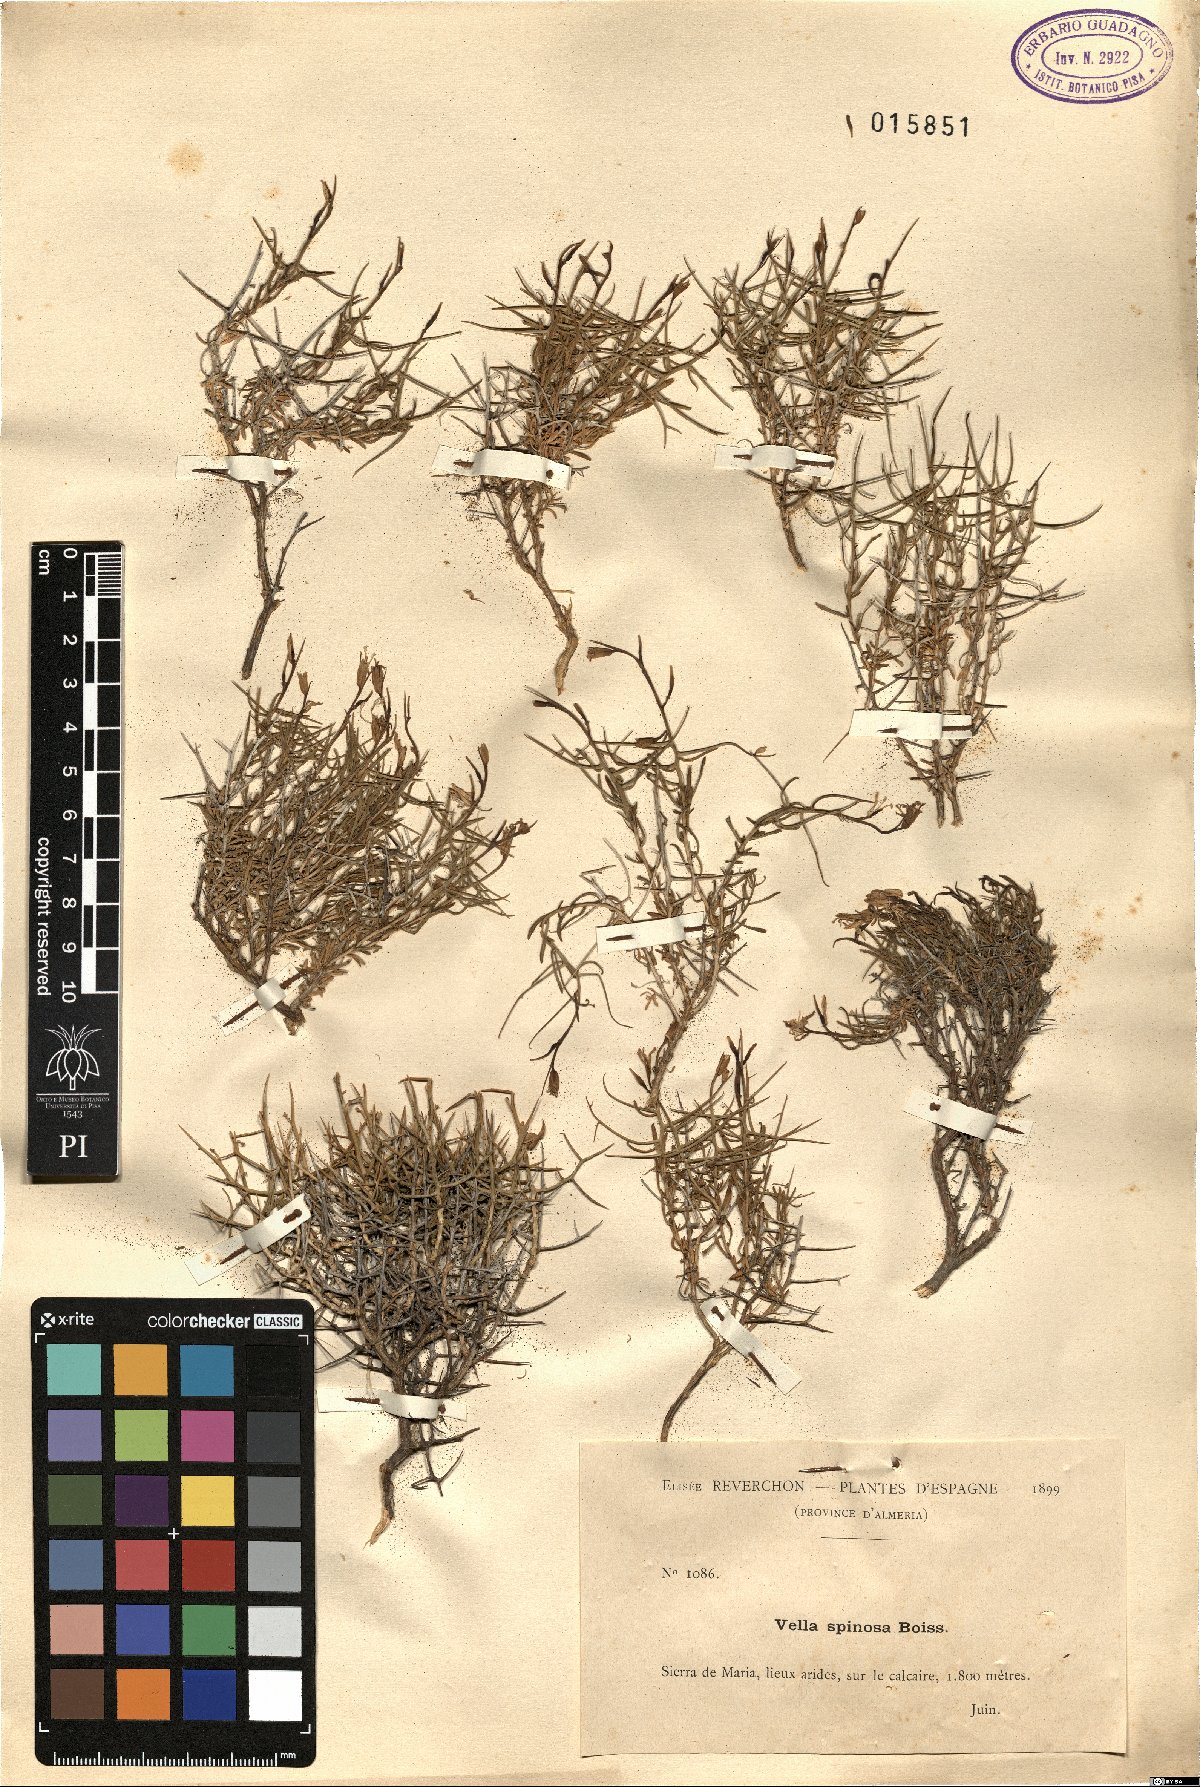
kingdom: Plantae
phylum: Tracheophyta
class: Magnoliopsida
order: Brassicales
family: Brassicaceae
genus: Vella
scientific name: Vella spinosa
